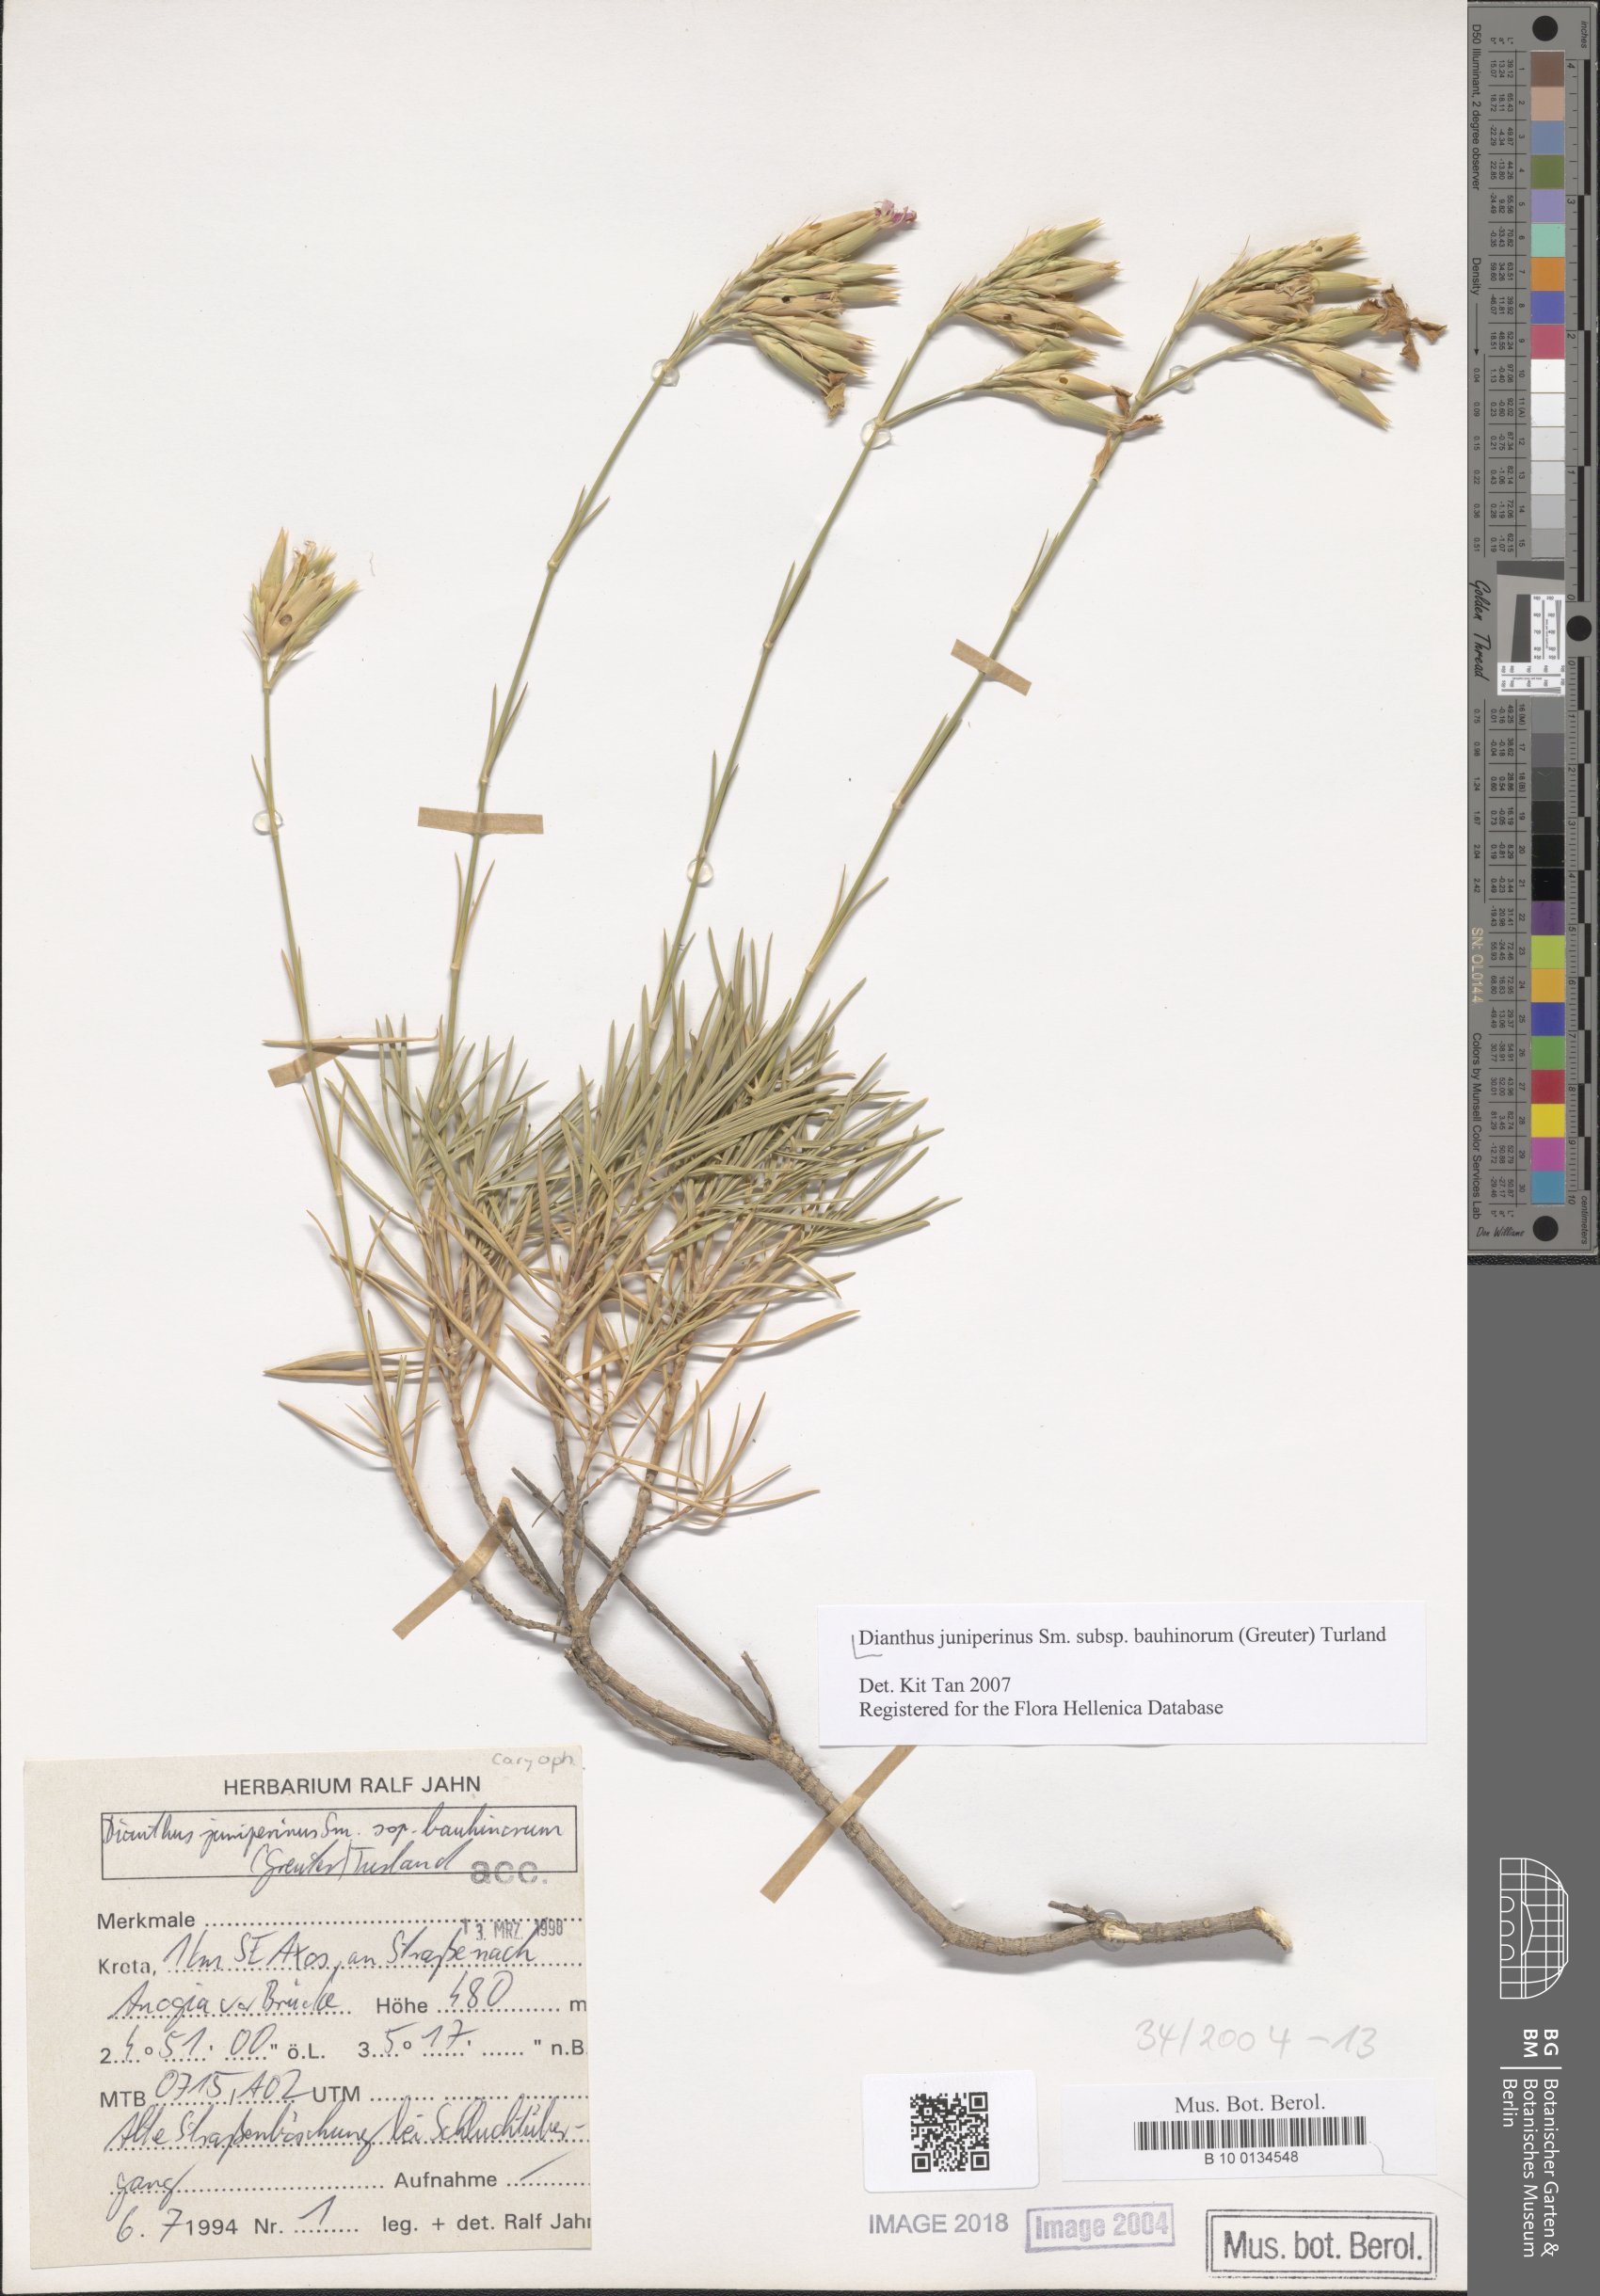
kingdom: Plantae
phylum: Tracheophyta
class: Magnoliopsida
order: Caryophyllales
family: Caryophyllaceae
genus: Dianthus
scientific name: Dianthus juniperinus
